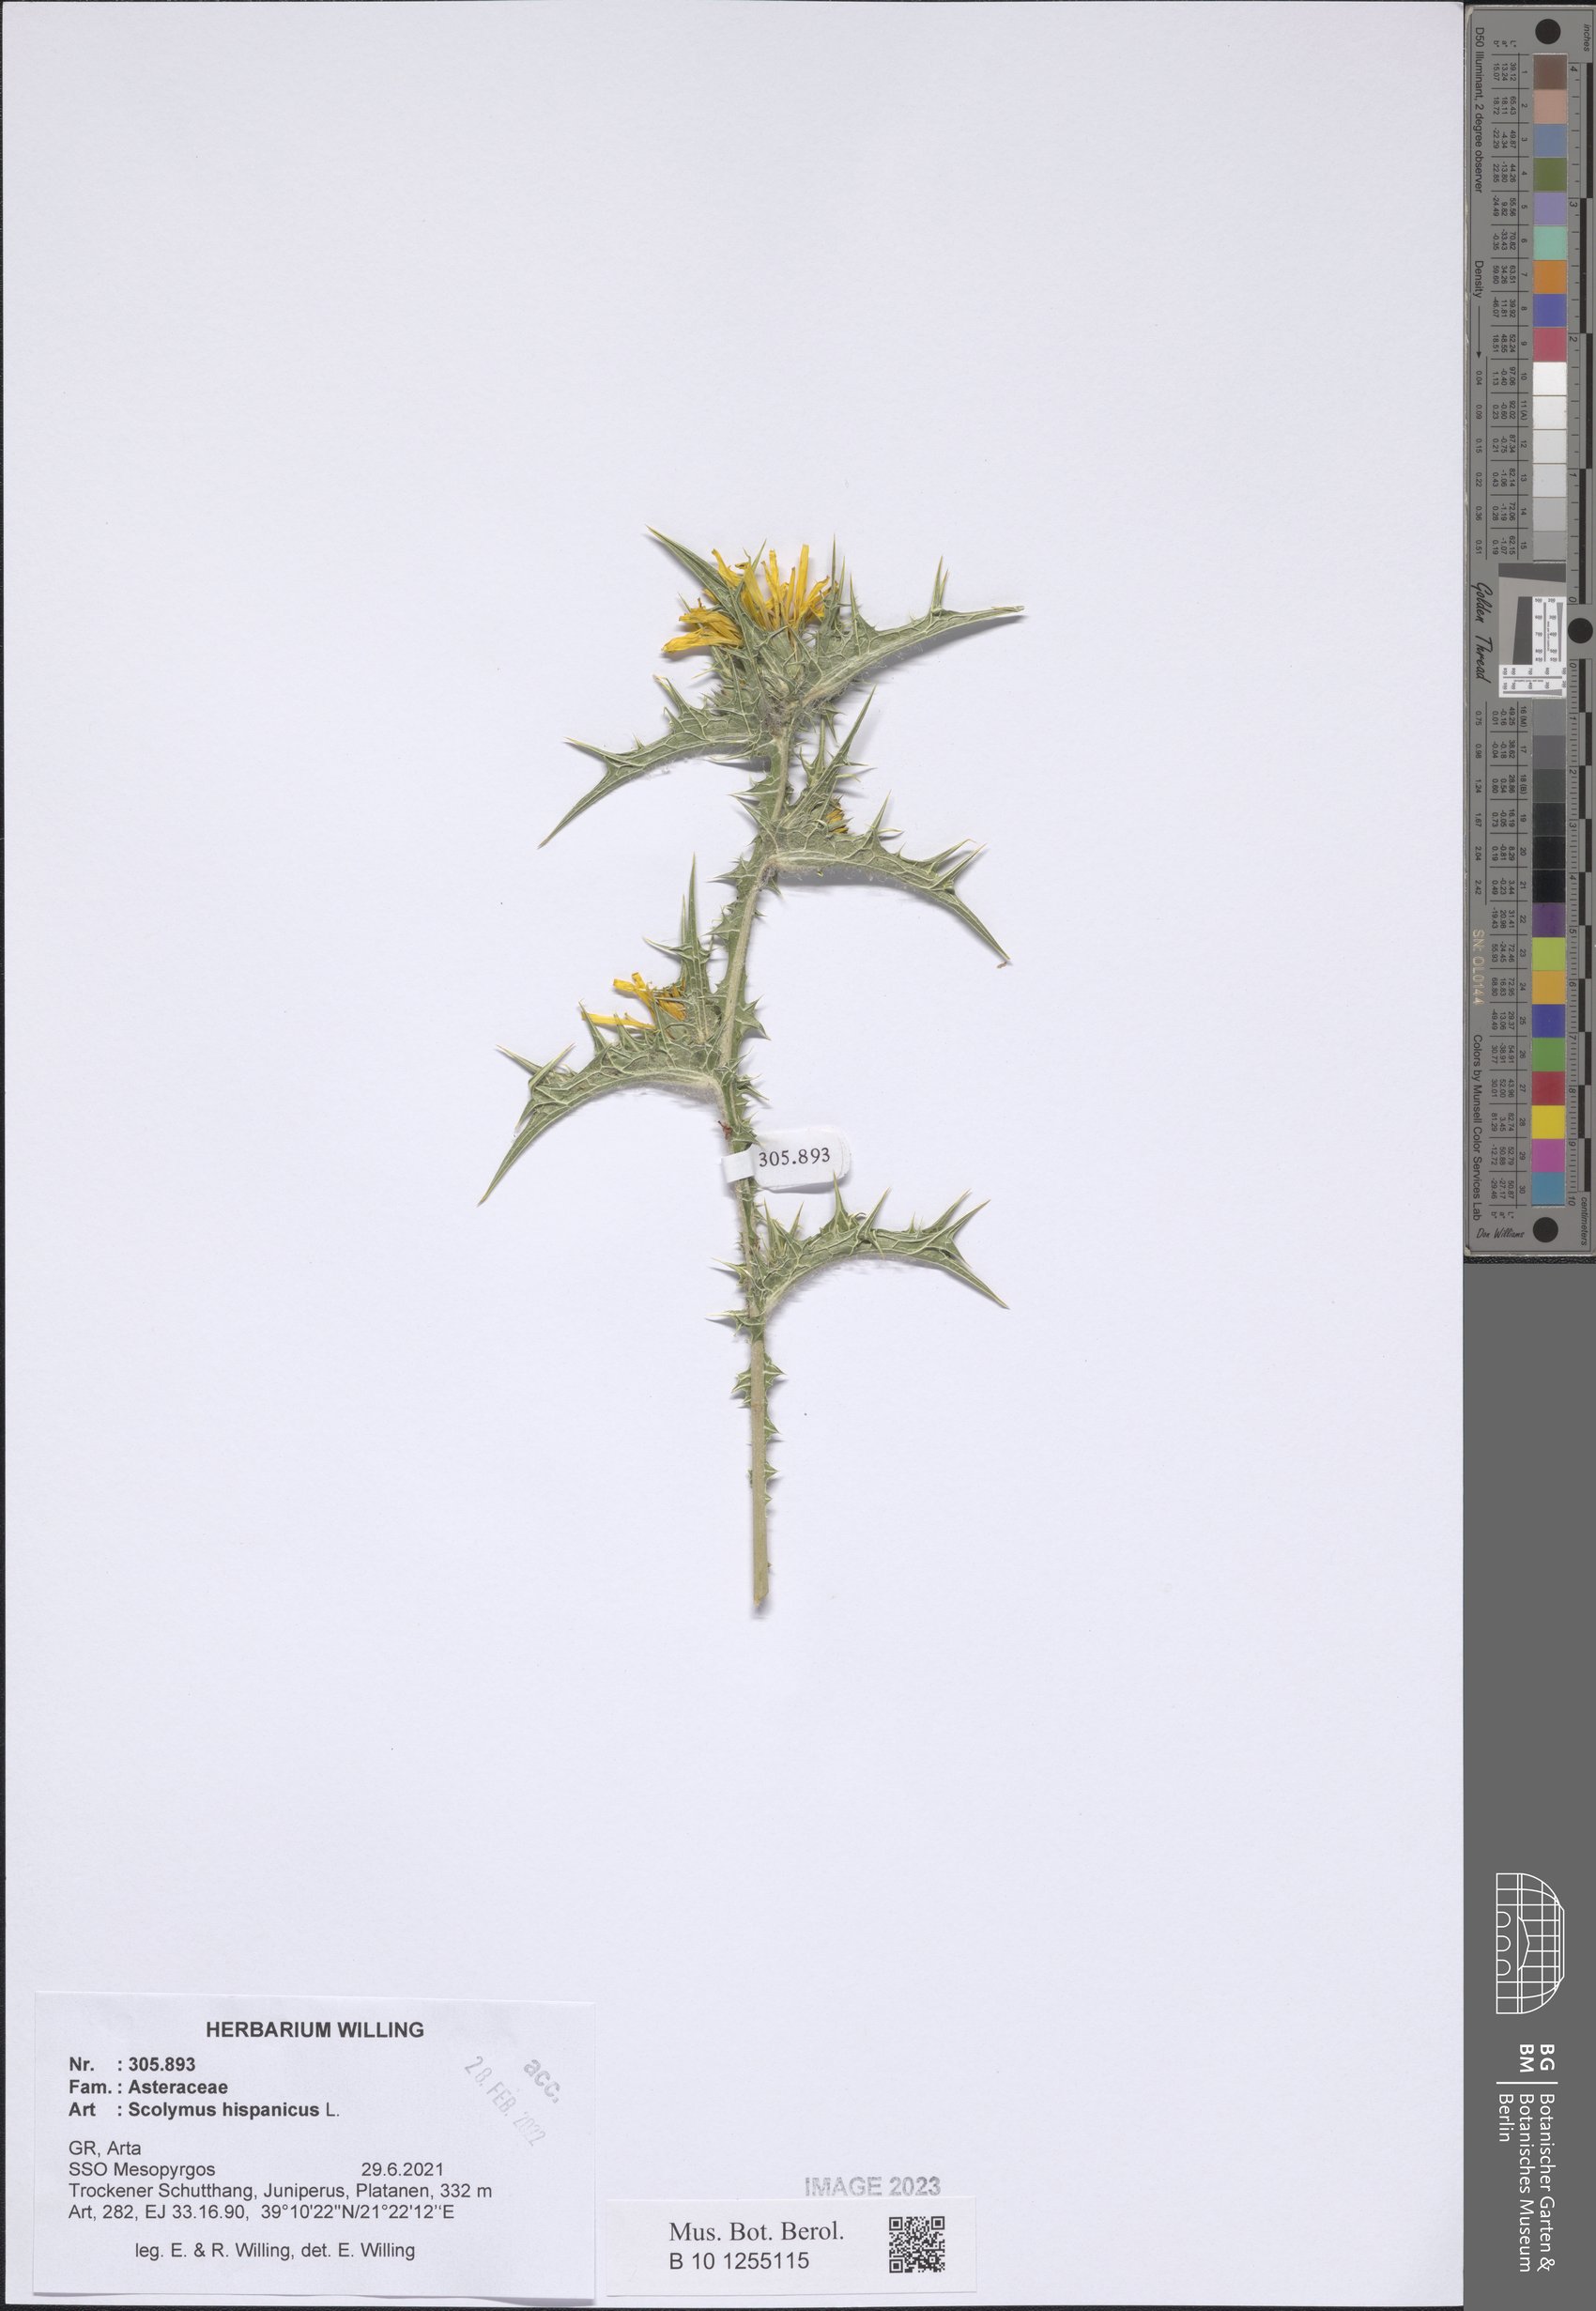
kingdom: Plantae
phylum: Tracheophyta
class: Magnoliopsida
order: Asterales
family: Asteraceae
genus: Scolymus
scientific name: Scolymus hispanicus
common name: Golden thistle
